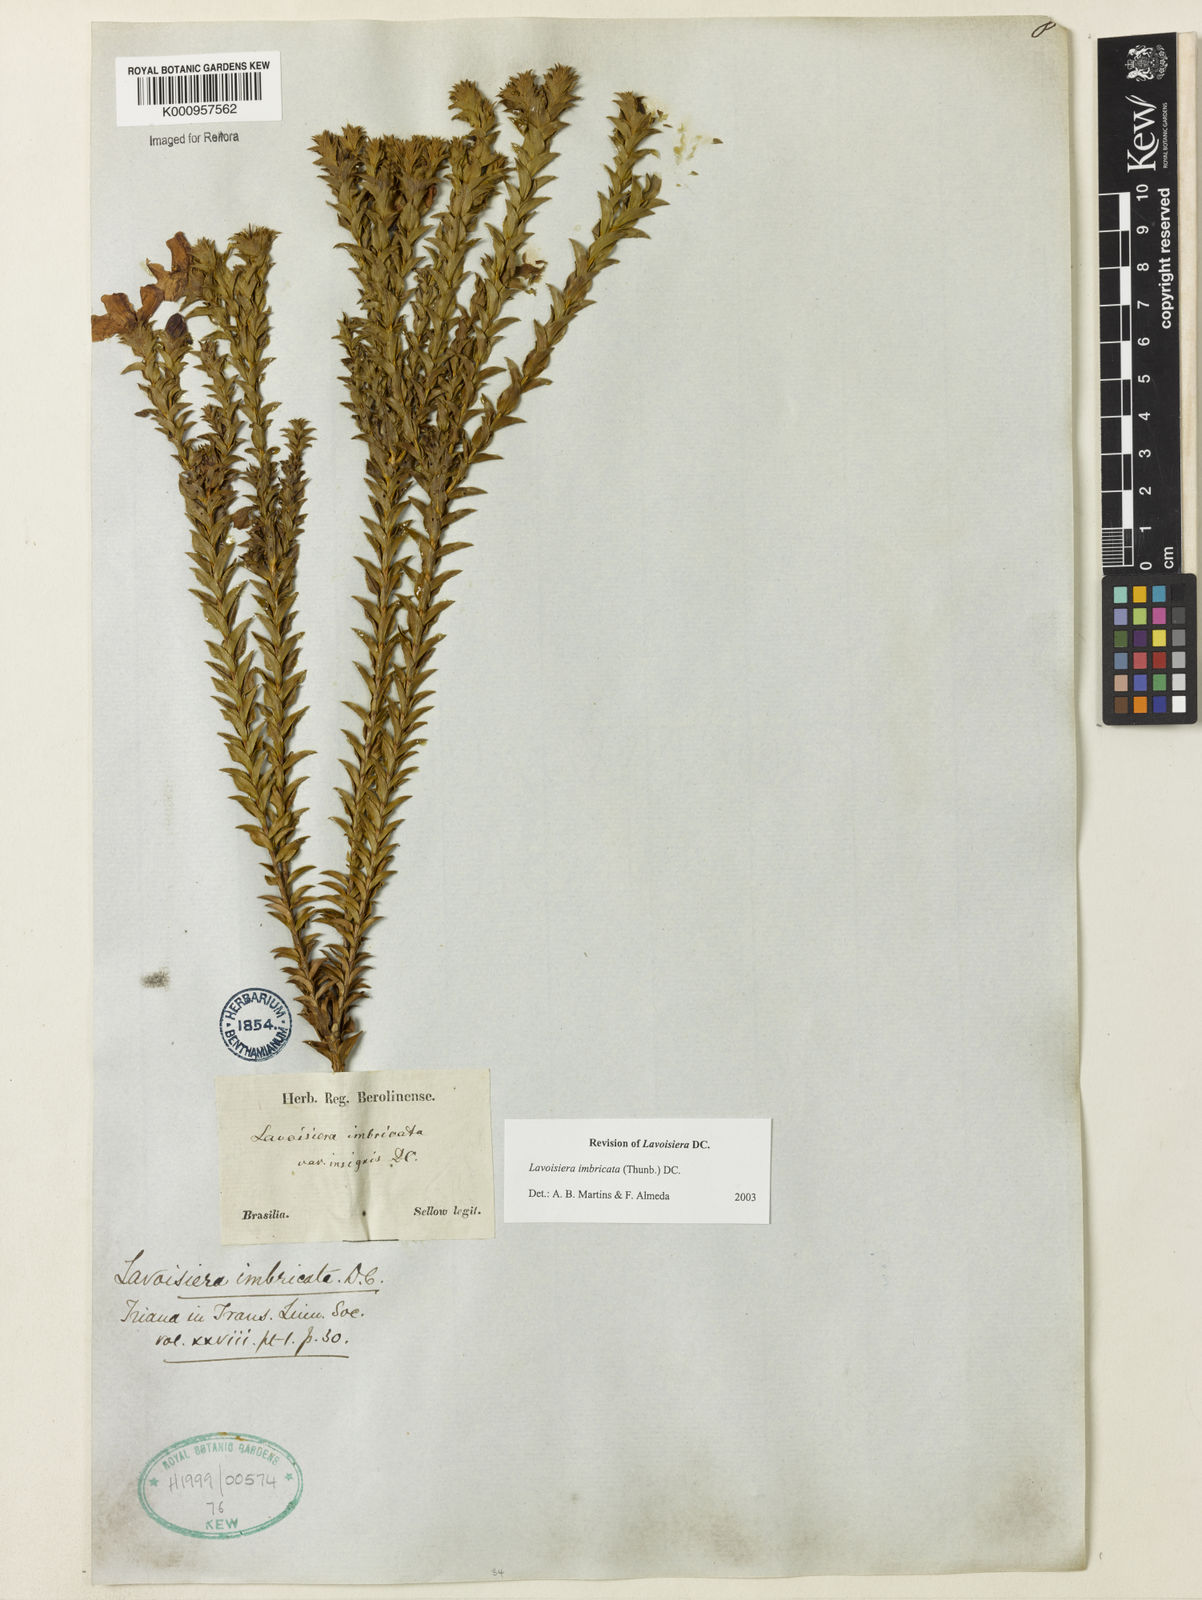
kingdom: Plantae
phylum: Tracheophyta
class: Magnoliopsida
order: Myrtales
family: Melastomataceae
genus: Microlicia
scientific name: Microlicia cataphracta
